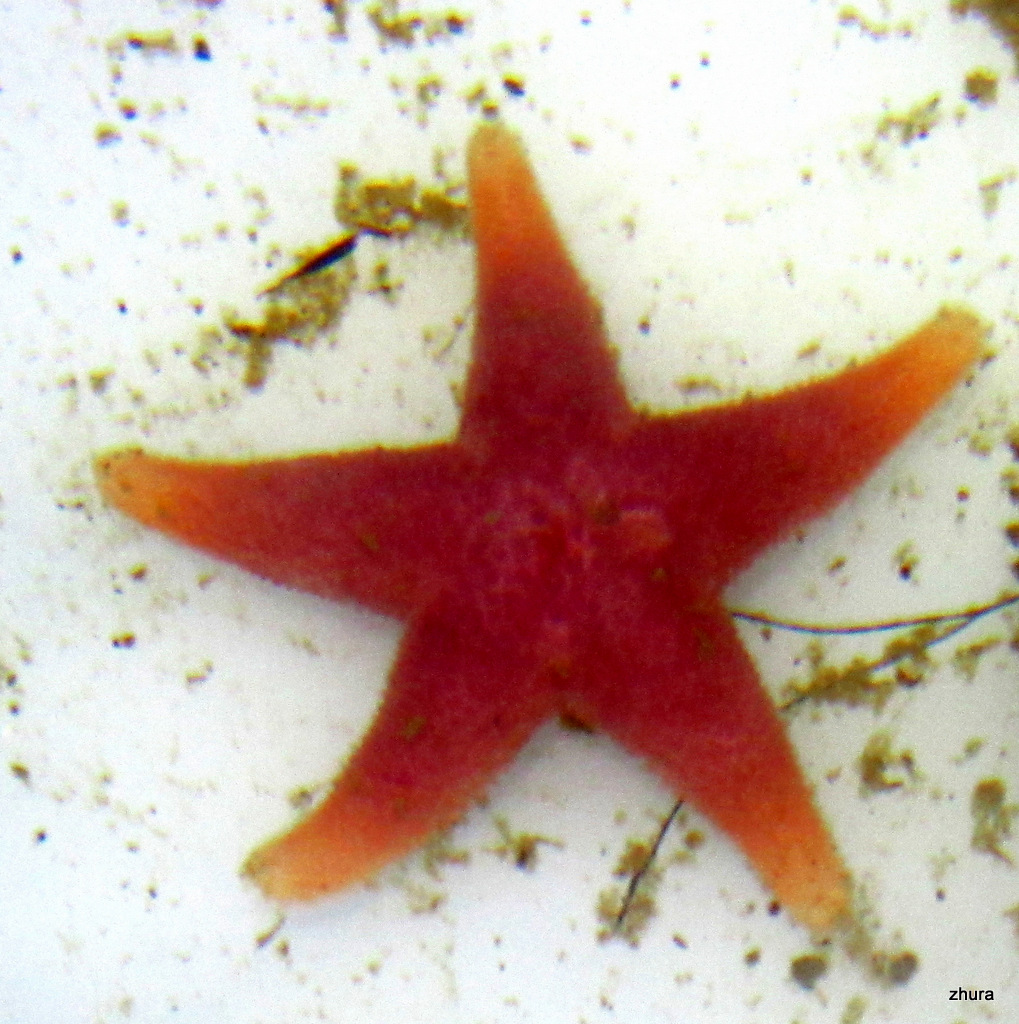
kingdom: Animalia
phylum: Echinodermata
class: Asteroidea
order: Spinulosida
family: Echinasteridae
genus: Henricia
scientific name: Henricia
